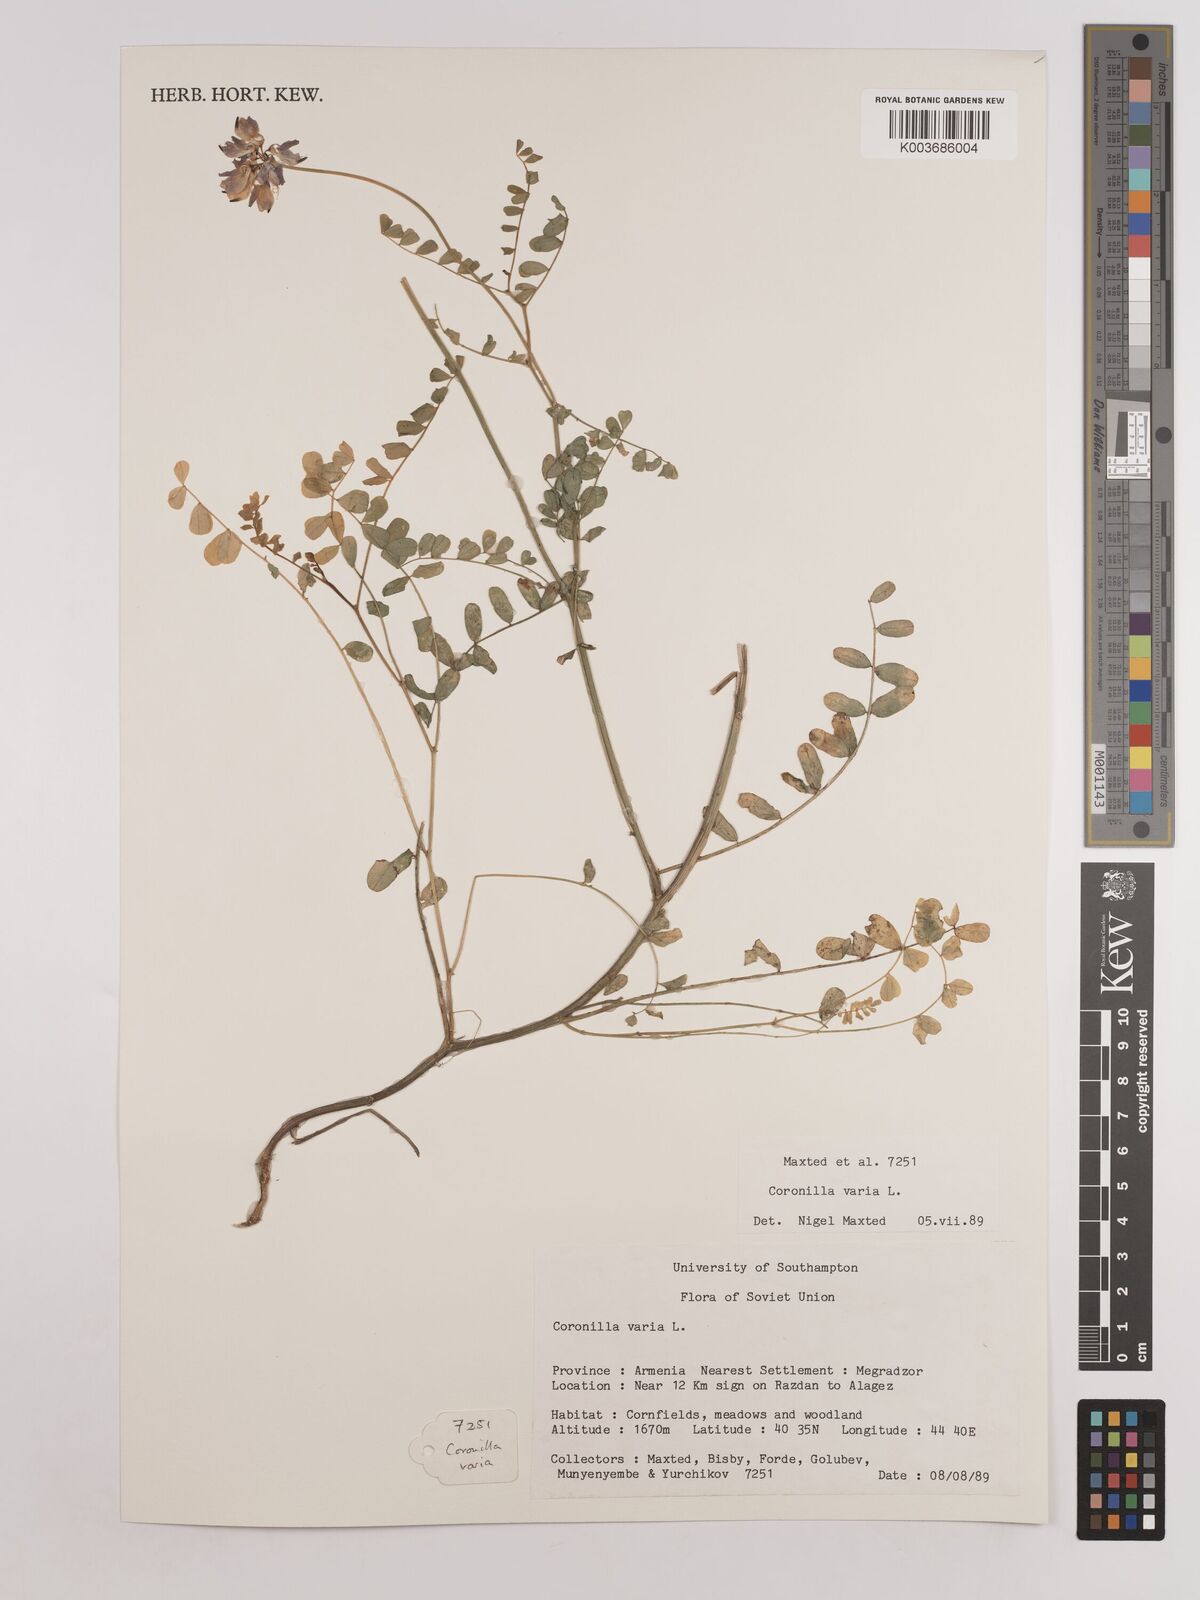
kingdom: Plantae
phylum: Tracheophyta
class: Magnoliopsida
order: Fabales
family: Fabaceae
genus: Coronilla
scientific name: Coronilla varia
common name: Crownvetch
